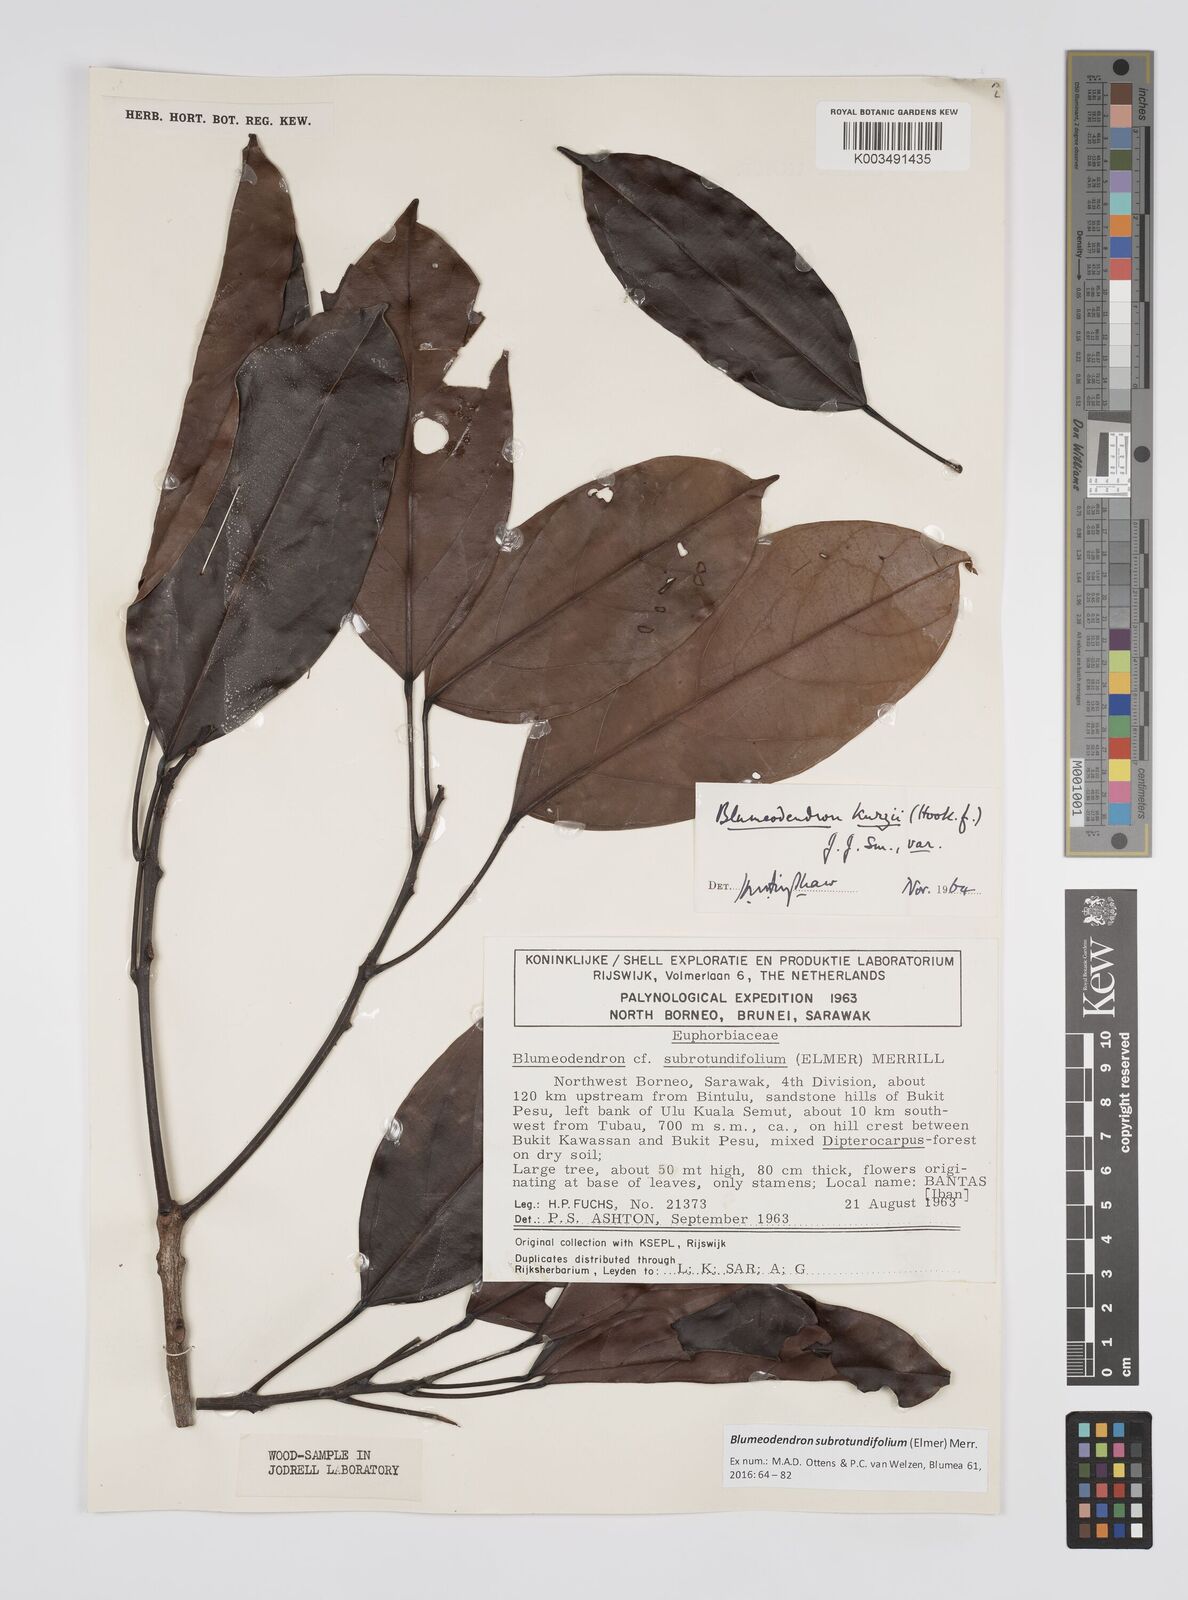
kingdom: Plantae
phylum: Tracheophyta
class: Magnoliopsida
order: Malpighiales
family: Euphorbiaceae
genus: Blumeodendron
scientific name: Blumeodendron subrotundifolium
